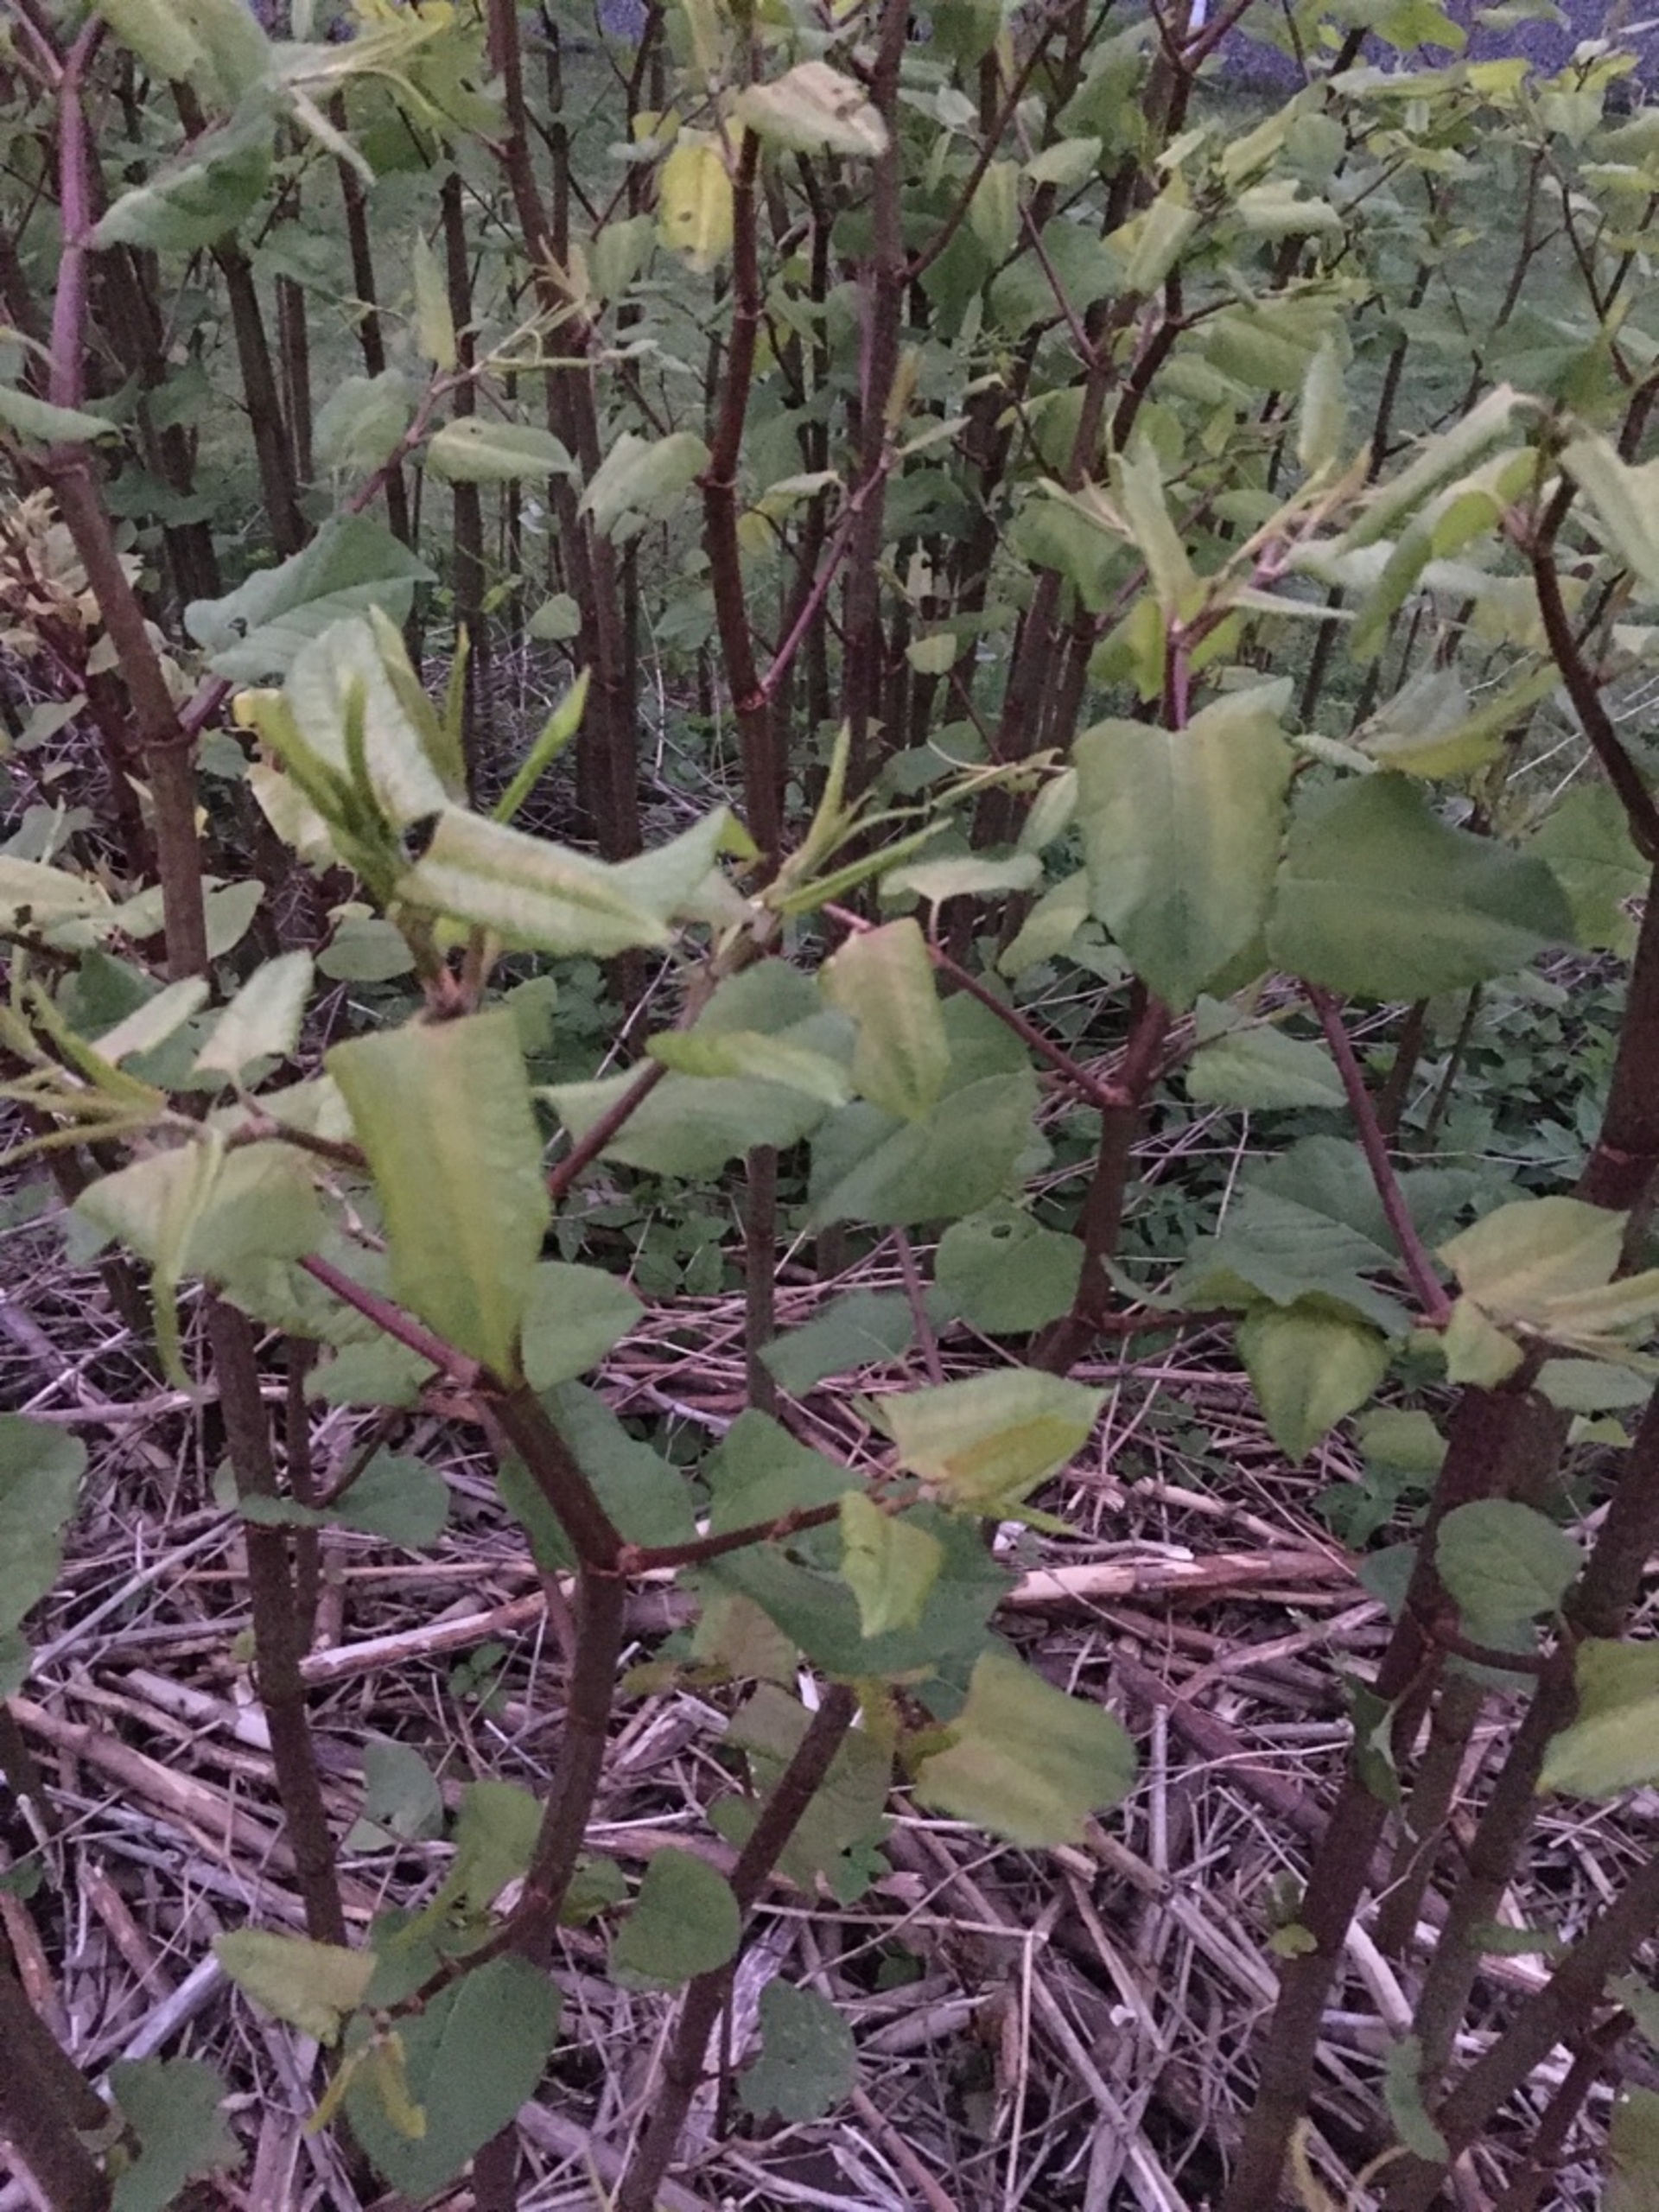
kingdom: Plantae
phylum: Tracheophyta
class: Magnoliopsida
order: Caryophyllales
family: Polygonaceae
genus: Reynoutria
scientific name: Reynoutria japonica
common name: Japan-pileurt
